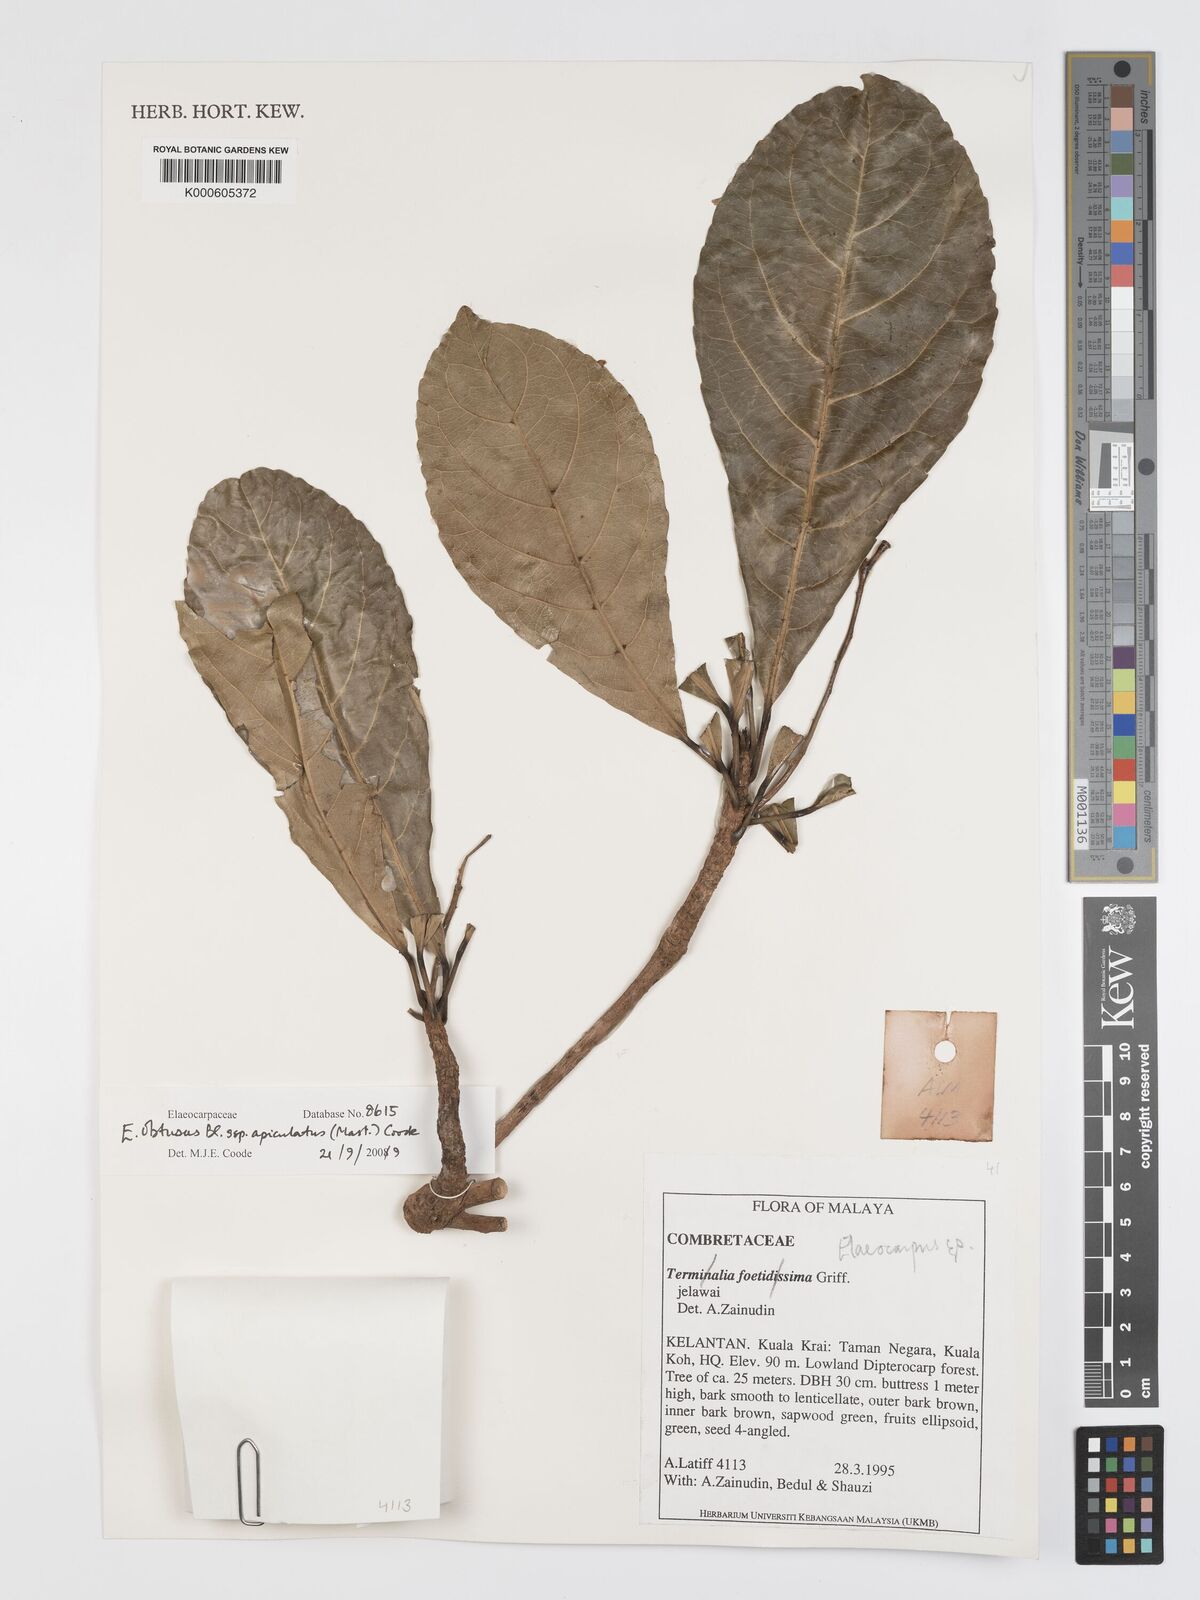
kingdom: Plantae
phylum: Tracheophyta
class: Magnoliopsida
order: Oxalidales
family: Elaeocarpaceae
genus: Elaeocarpus
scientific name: Elaeocarpus obtusus
